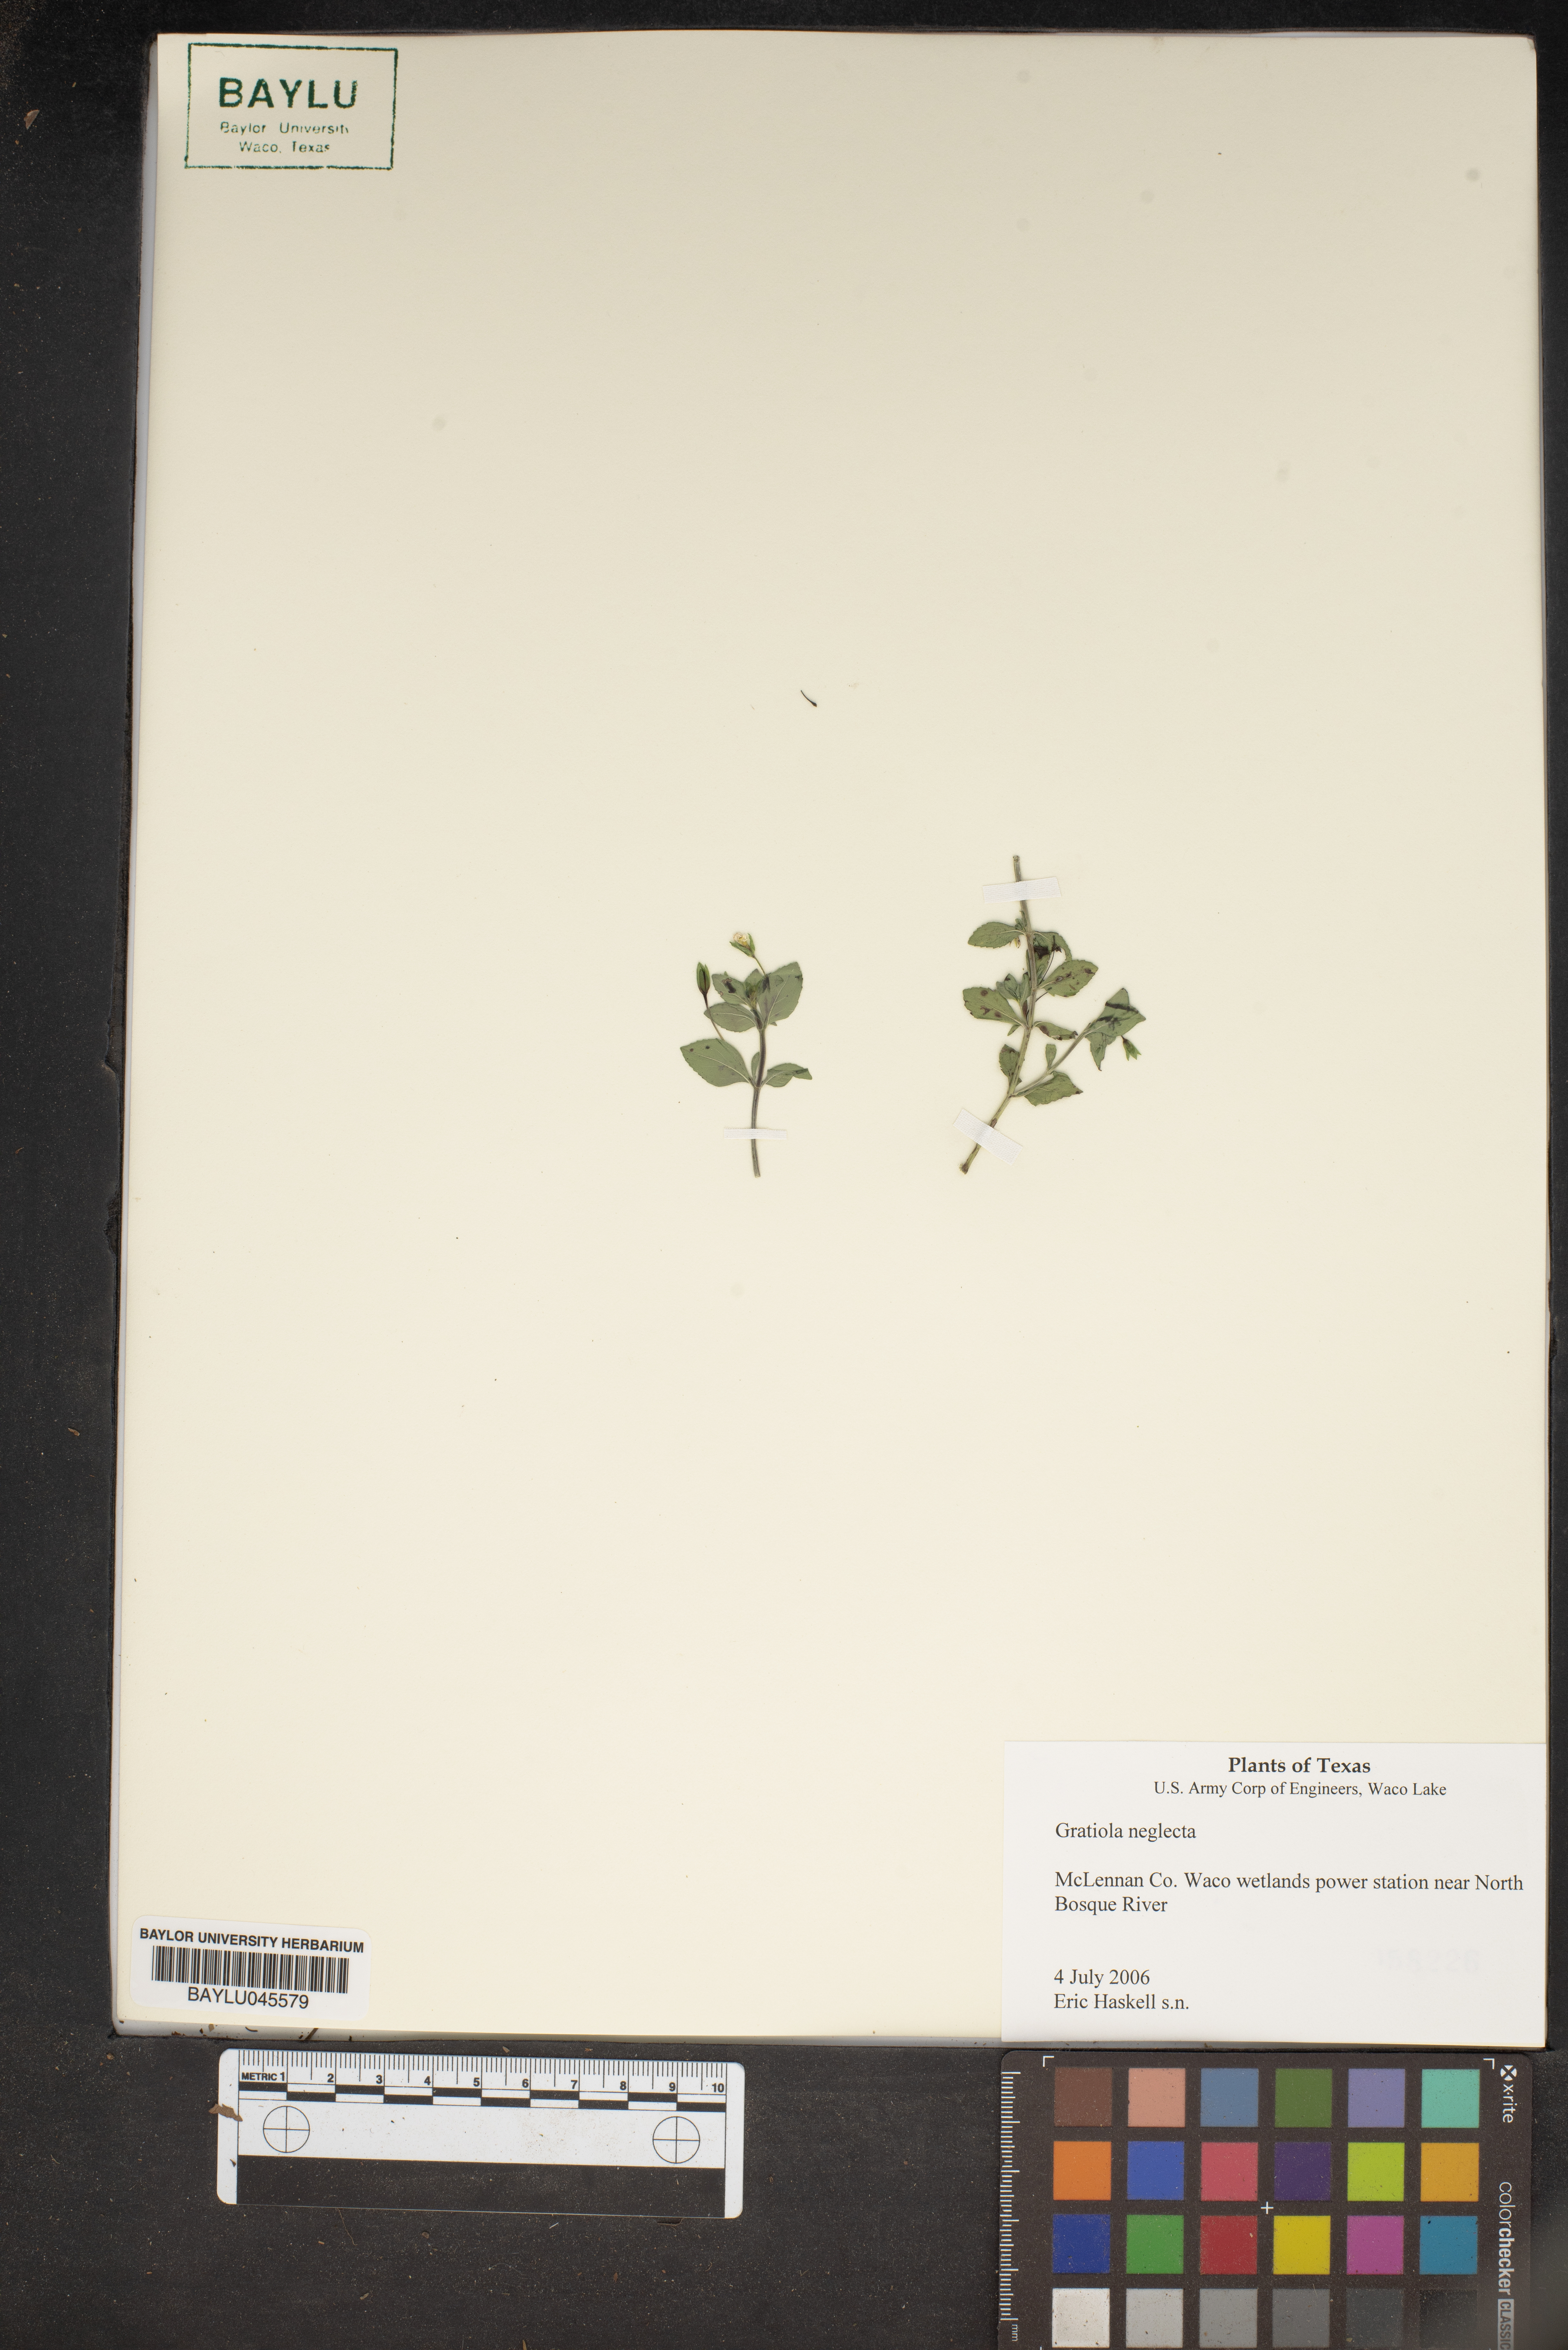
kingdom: Plantae
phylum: Tracheophyta
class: Magnoliopsida
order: Lamiales
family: Plantaginaceae
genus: Gratiola
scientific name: Gratiola neglecta
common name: American hedge-hyssop
